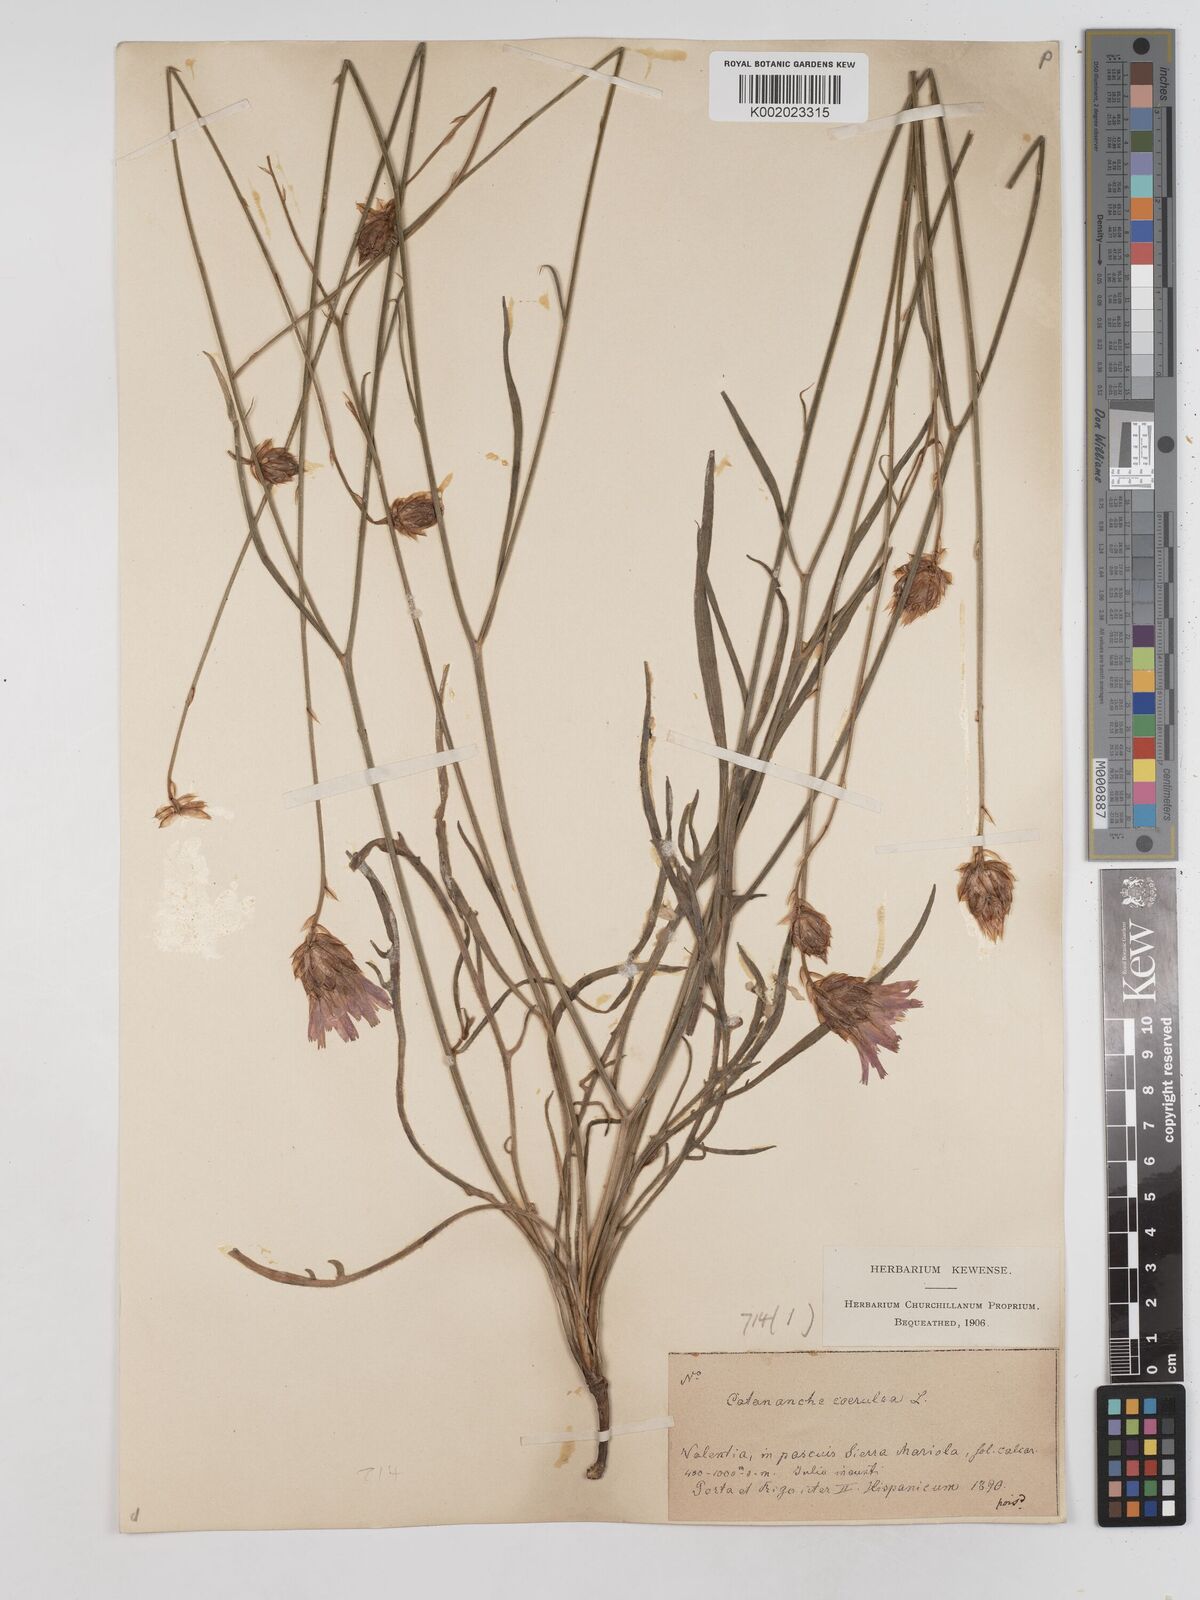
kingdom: Plantae
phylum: Tracheophyta
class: Magnoliopsida
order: Asterales
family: Asteraceae
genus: Catananche
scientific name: Catananche caerulea
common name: Blue cupidone
